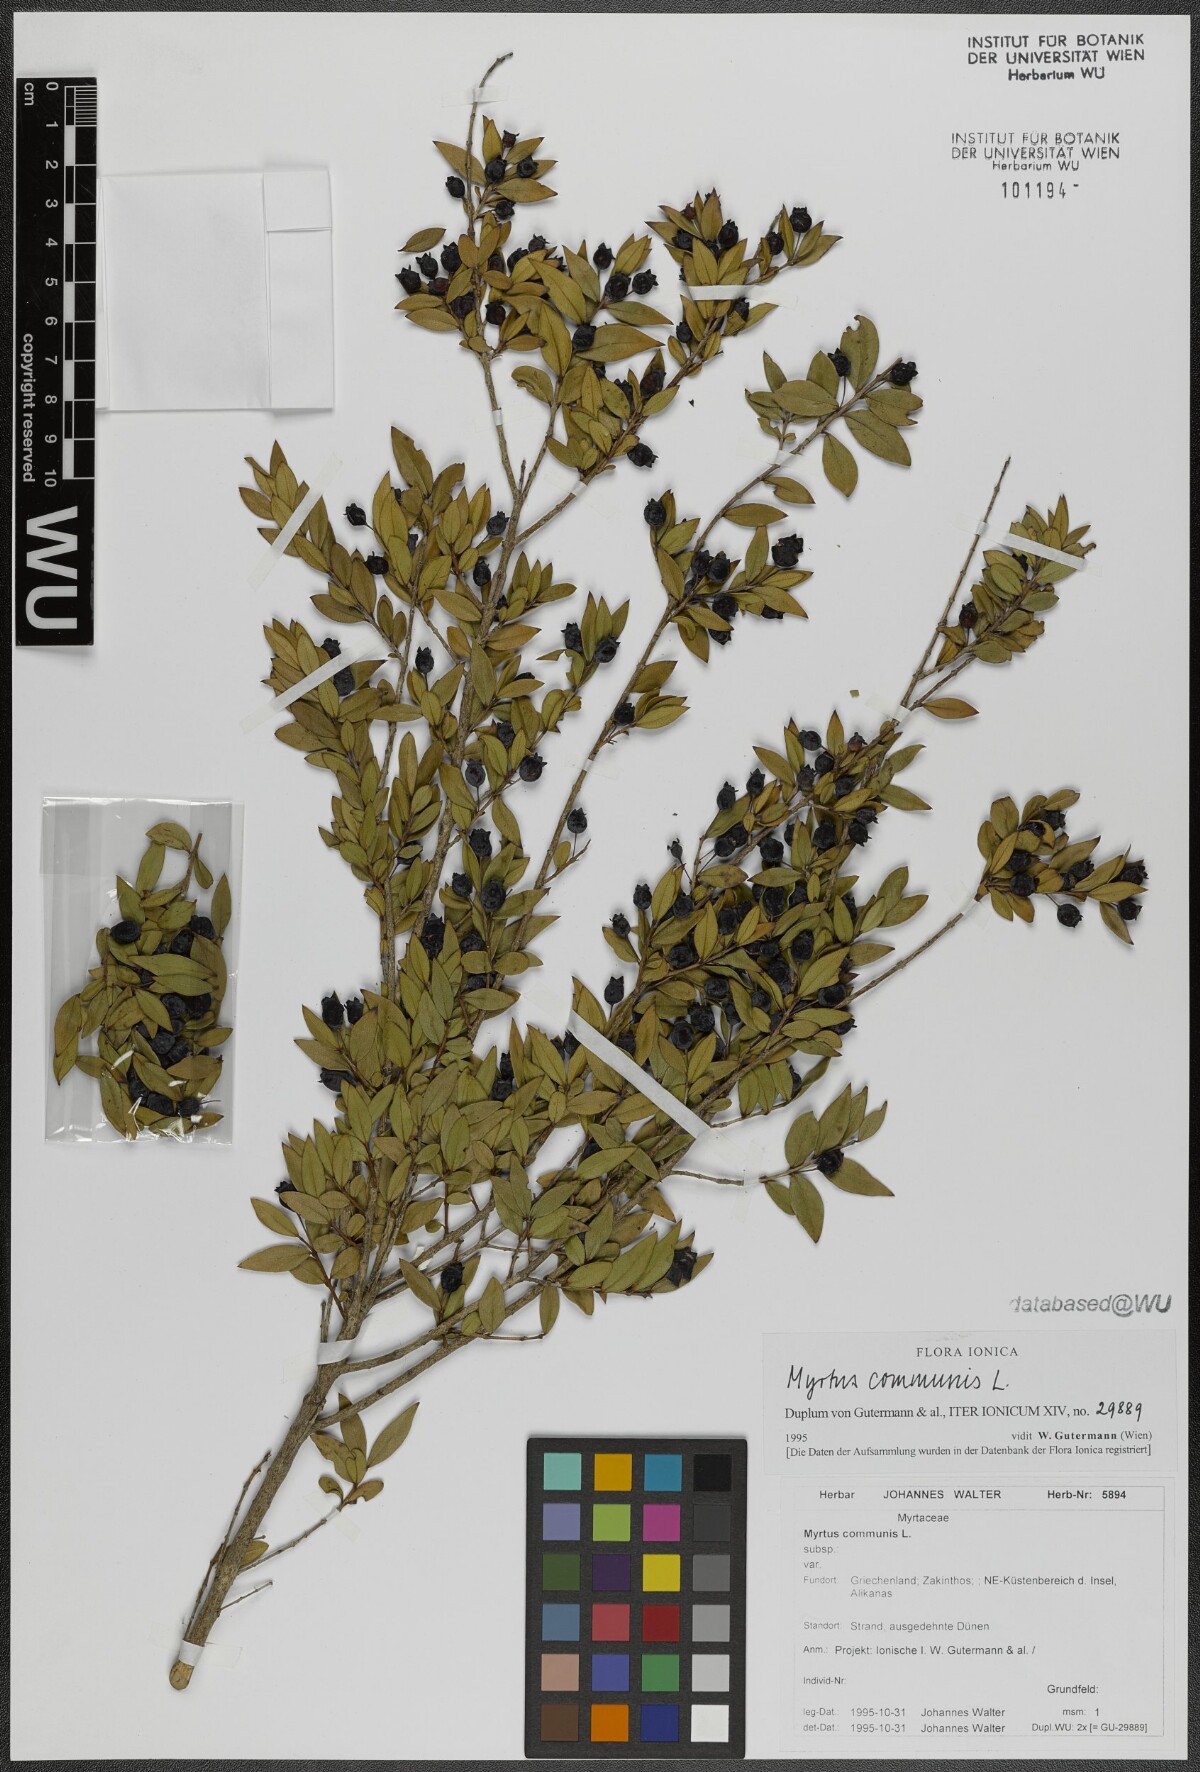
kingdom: Plantae
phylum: Tracheophyta
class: Magnoliopsida
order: Myrtales
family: Myrtaceae
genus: Myrtus
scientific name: Myrtus communis
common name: Myrtle
